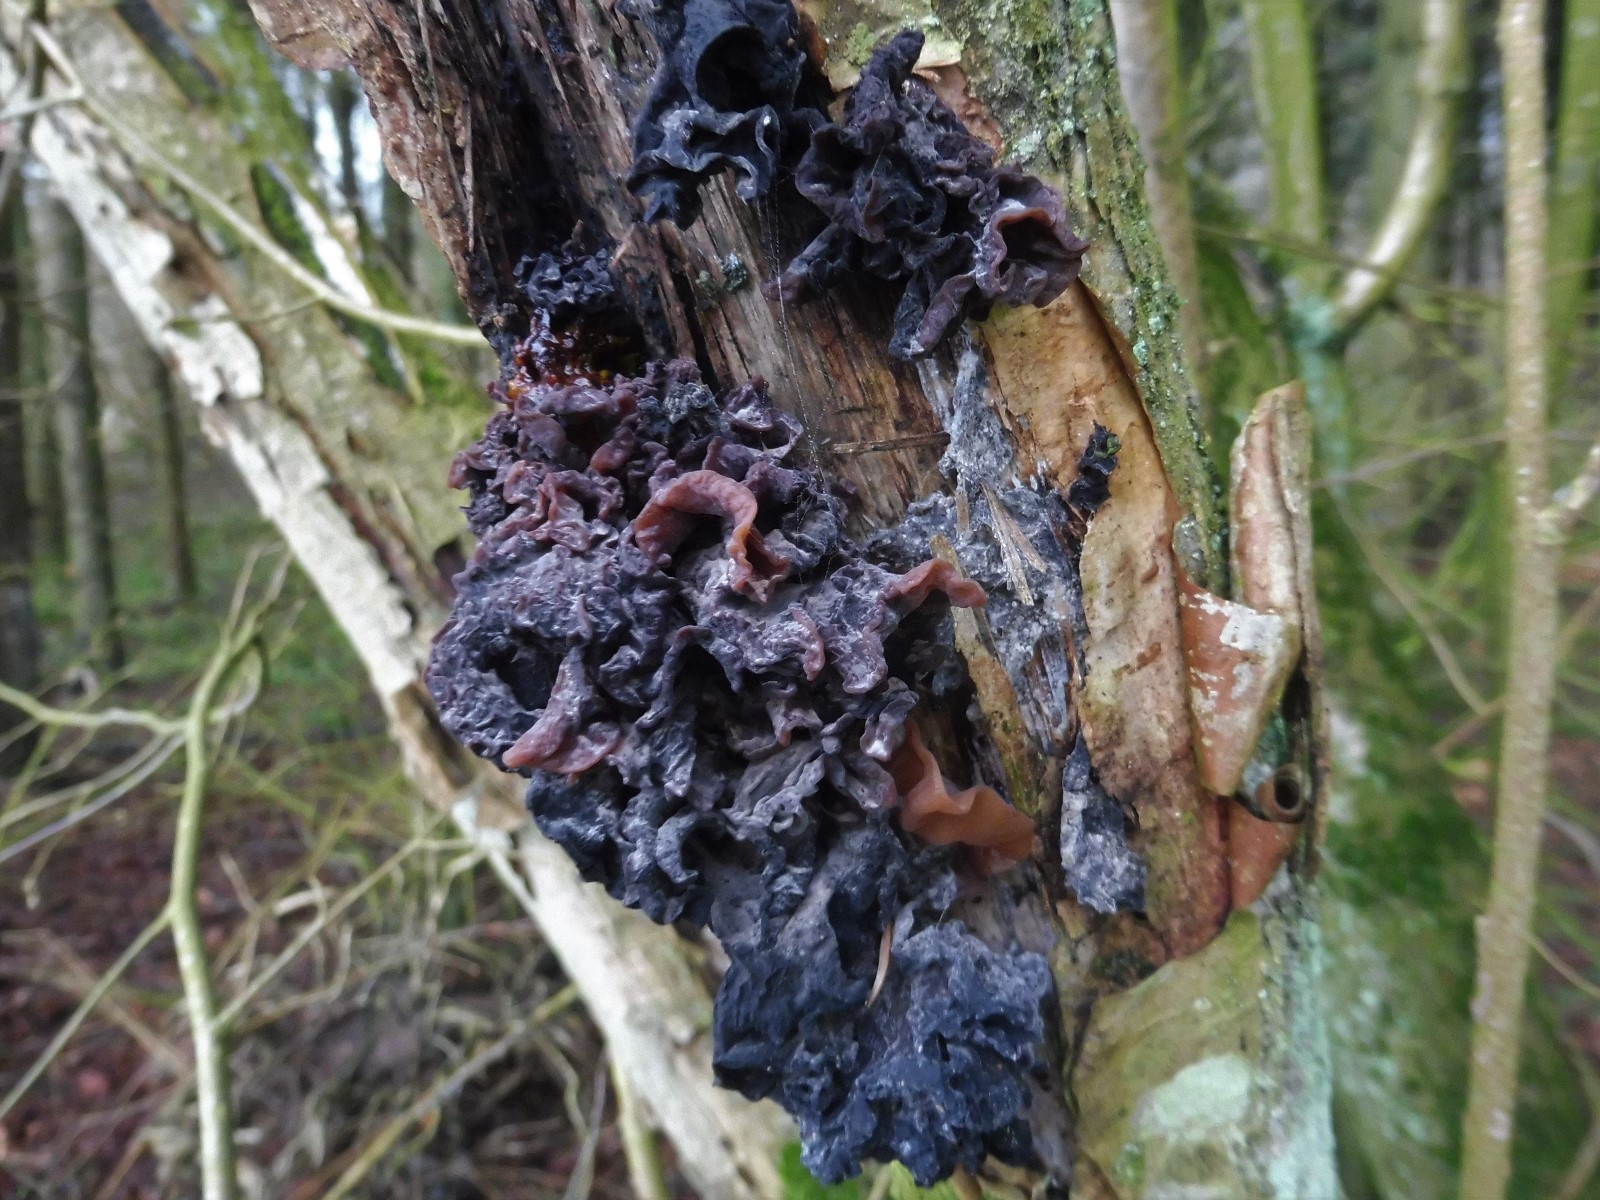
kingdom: Fungi
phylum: Basidiomycota
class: Tremellomycetes
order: Tremellales
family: Tremellaceae
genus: Phaeotremella
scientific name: Phaeotremella frondosa
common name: kæmpe-bævresvamp
